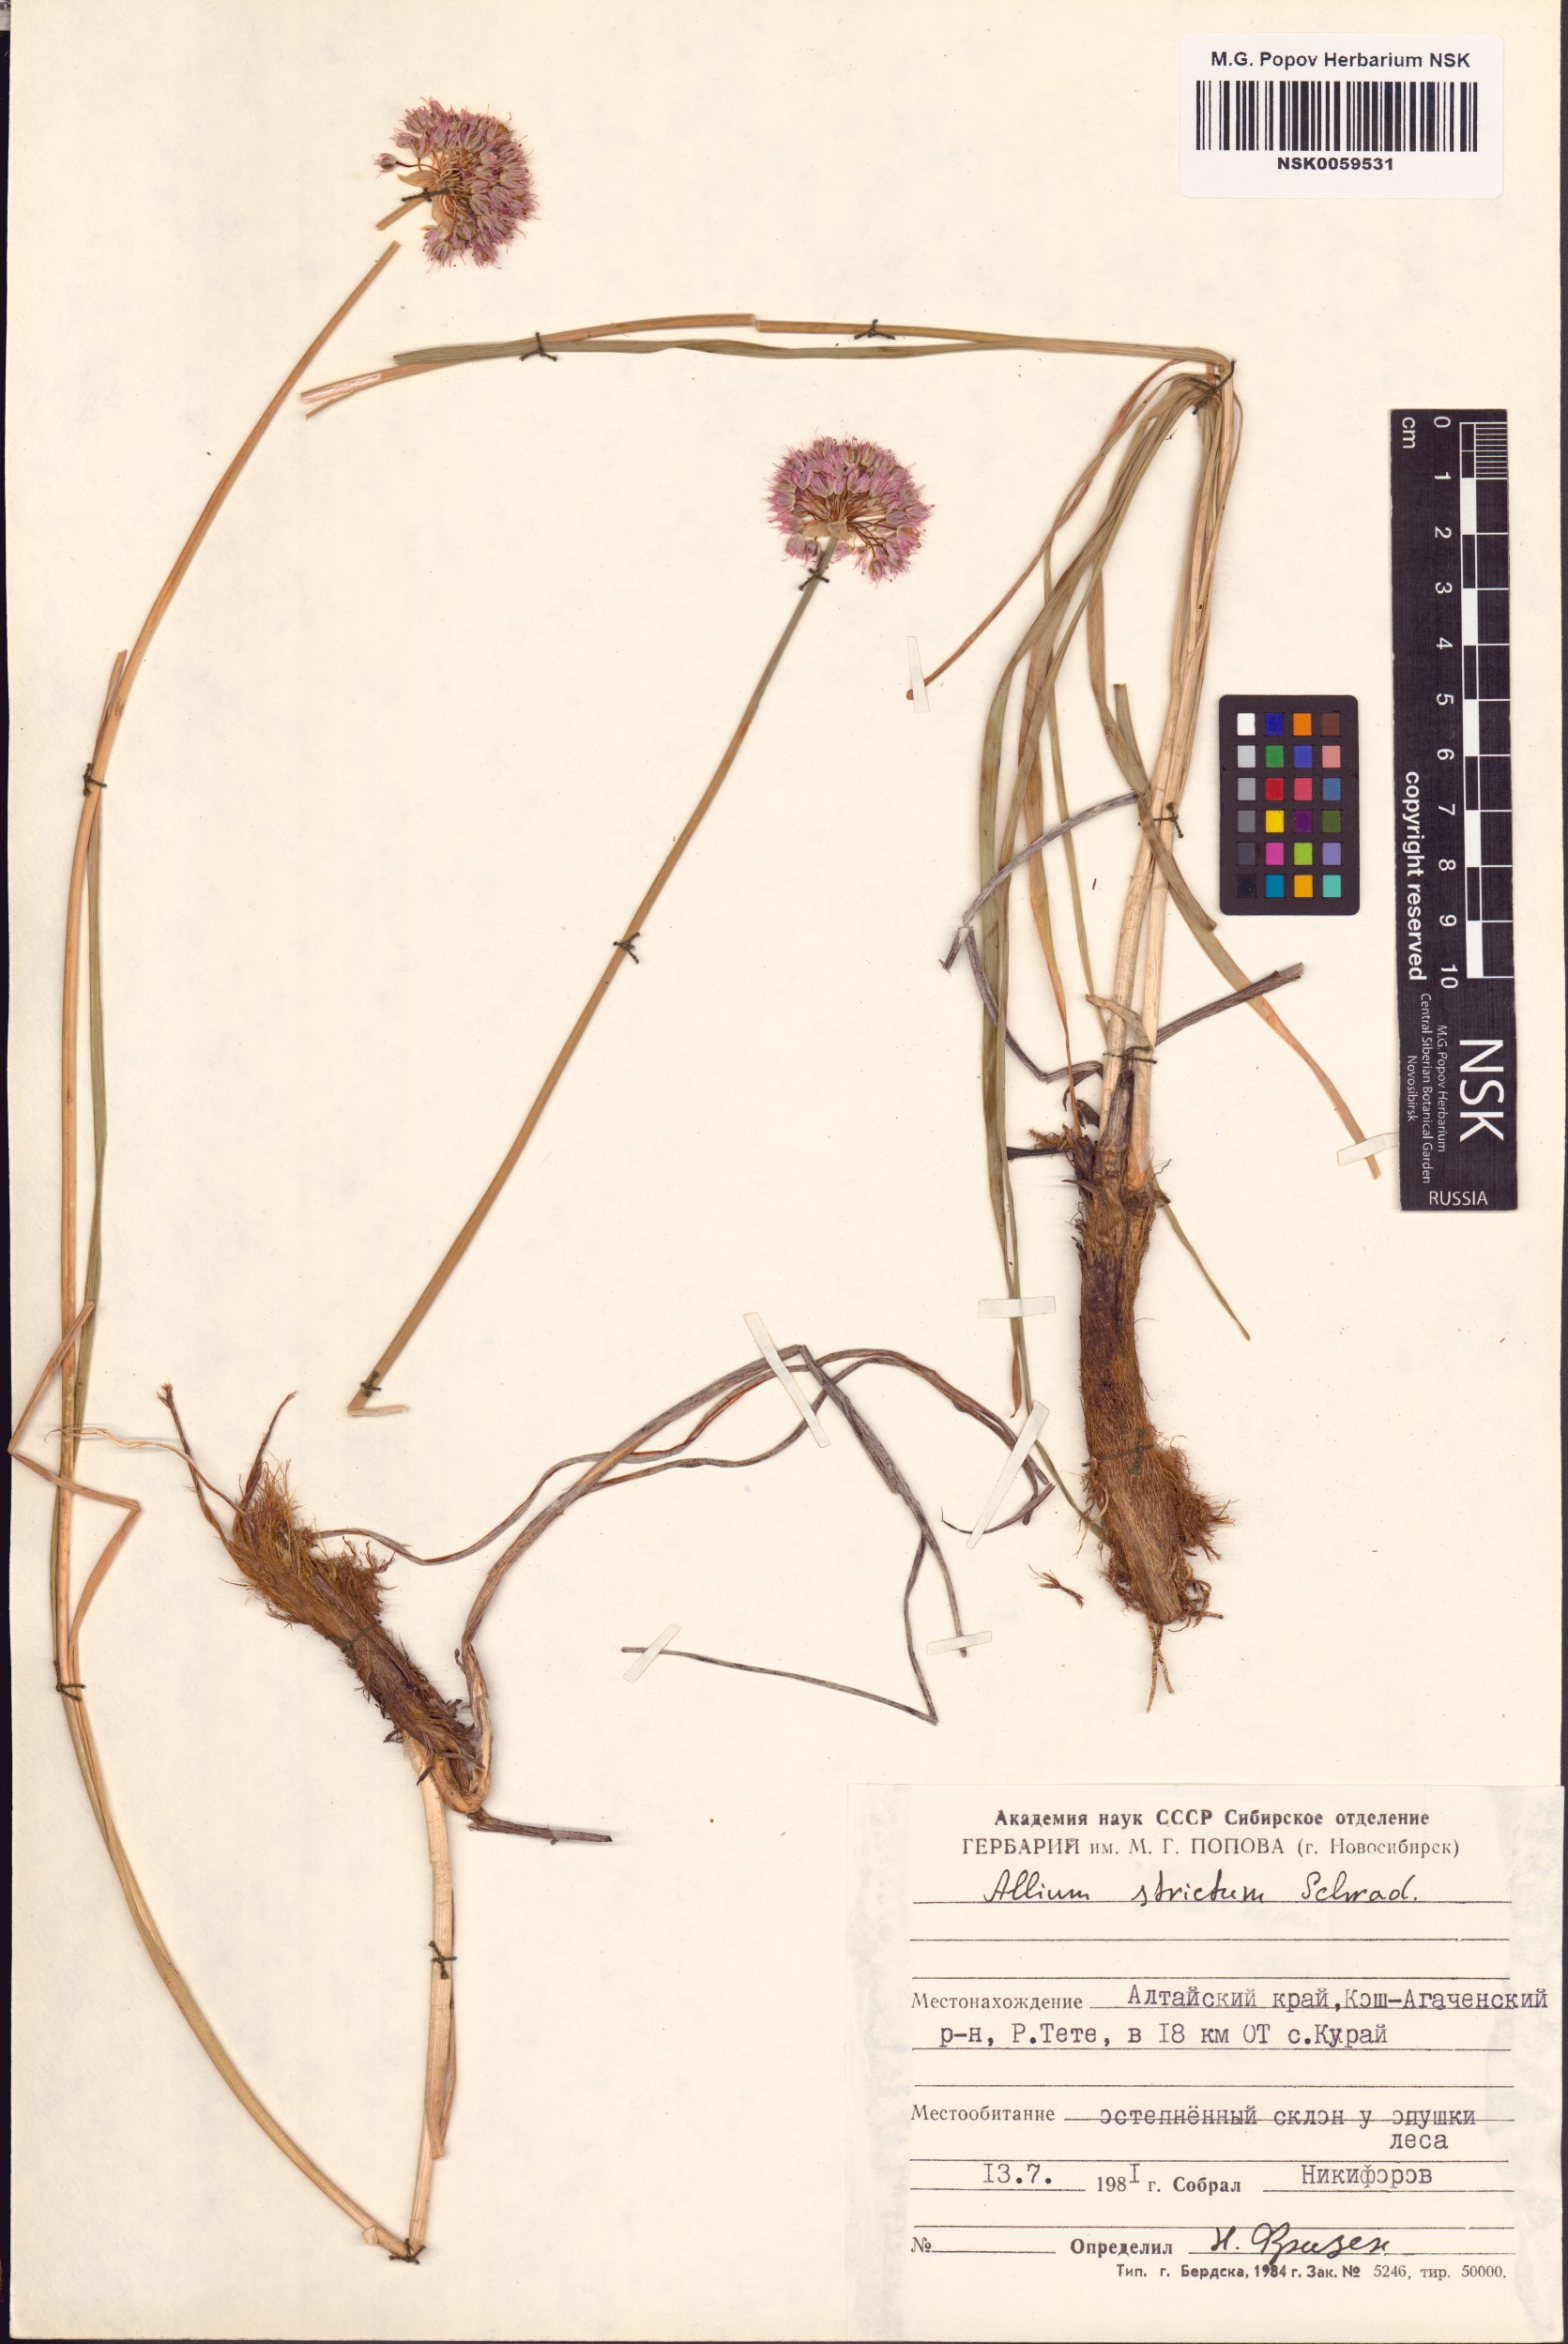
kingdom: Plantae
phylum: Tracheophyta
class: Liliopsida
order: Asparagales
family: Amaryllidaceae
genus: Allium
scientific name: Allium strictum
